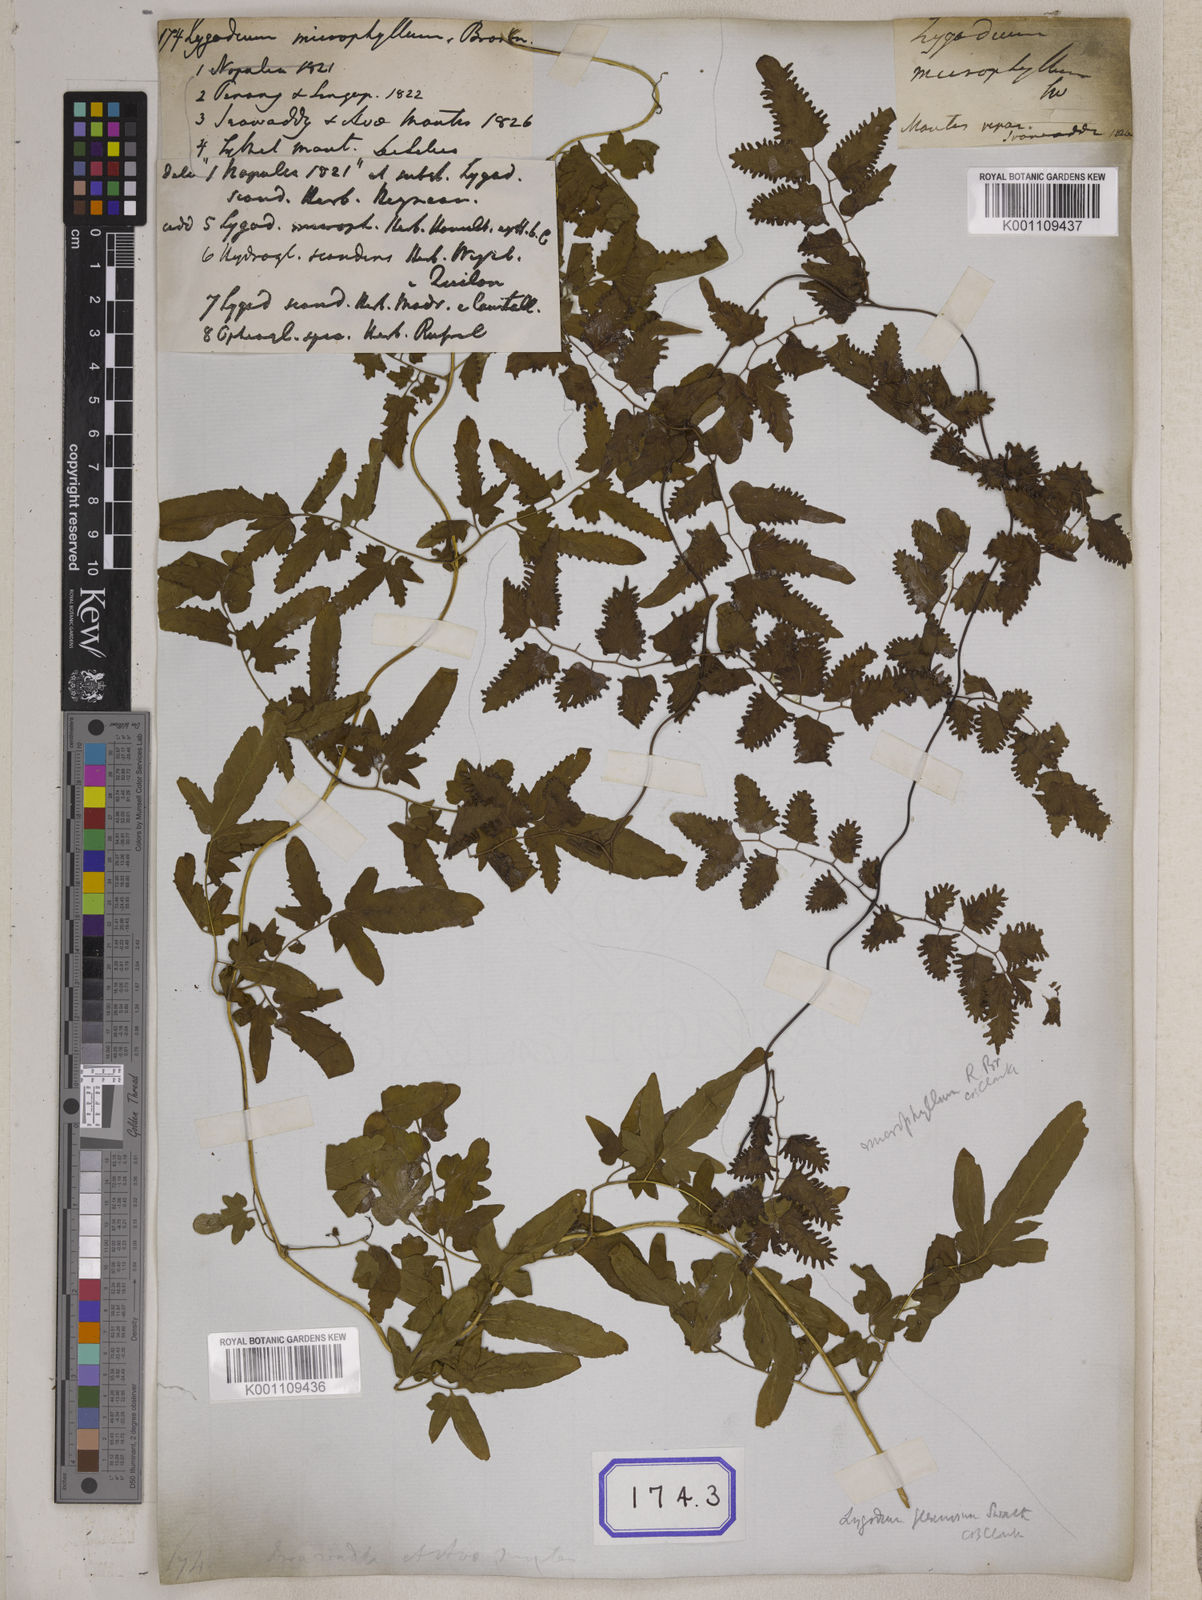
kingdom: Plantae
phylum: Tracheophyta
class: Polypodiopsida
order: Schizaeales
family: Lygodiaceae
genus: Lygodium
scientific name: Lygodium
